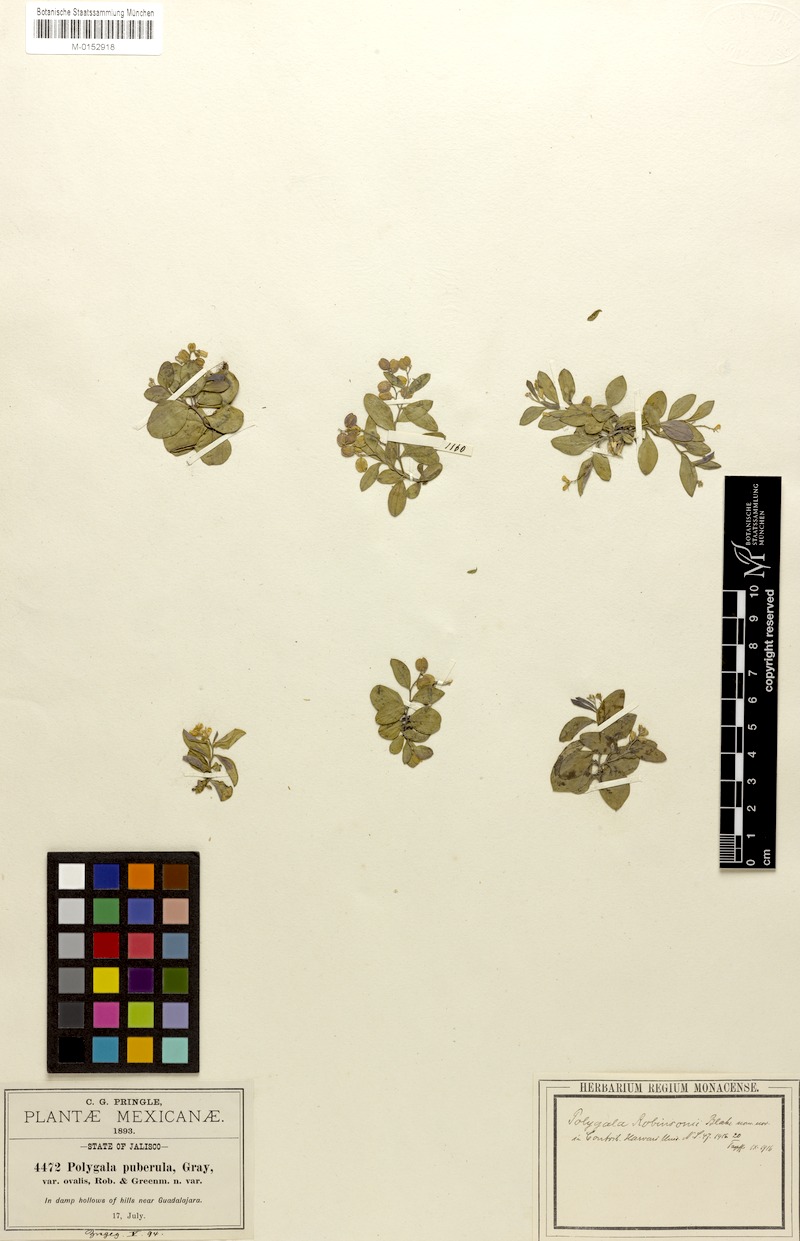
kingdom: Plantae
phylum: Tracheophyta
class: Magnoliopsida
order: Fabales
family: Polygalaceae
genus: Hebecarpa
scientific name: Hebecarpa robinsonii
